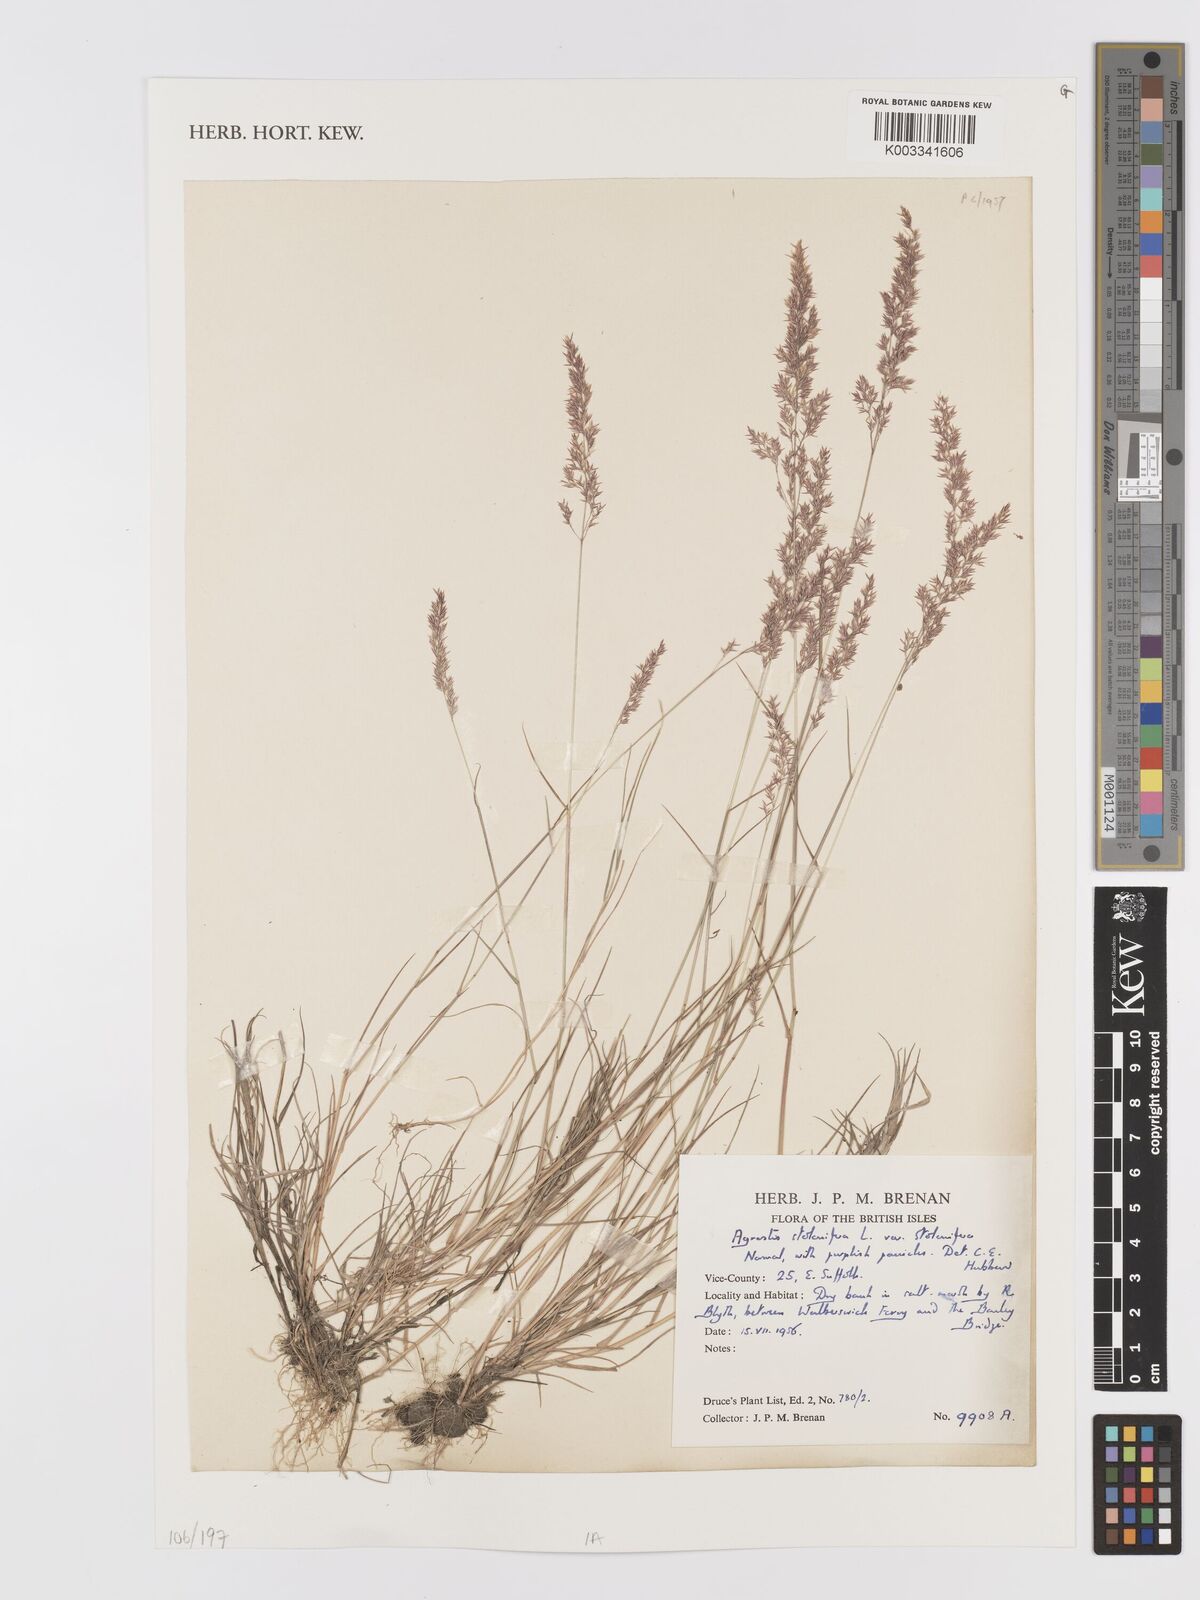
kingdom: Plantae
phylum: Tracheophyta
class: Liliopsida
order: Poales
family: Poaceae
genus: Agrostis
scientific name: Agrostis stolonifera
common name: Creeping bentgrass
